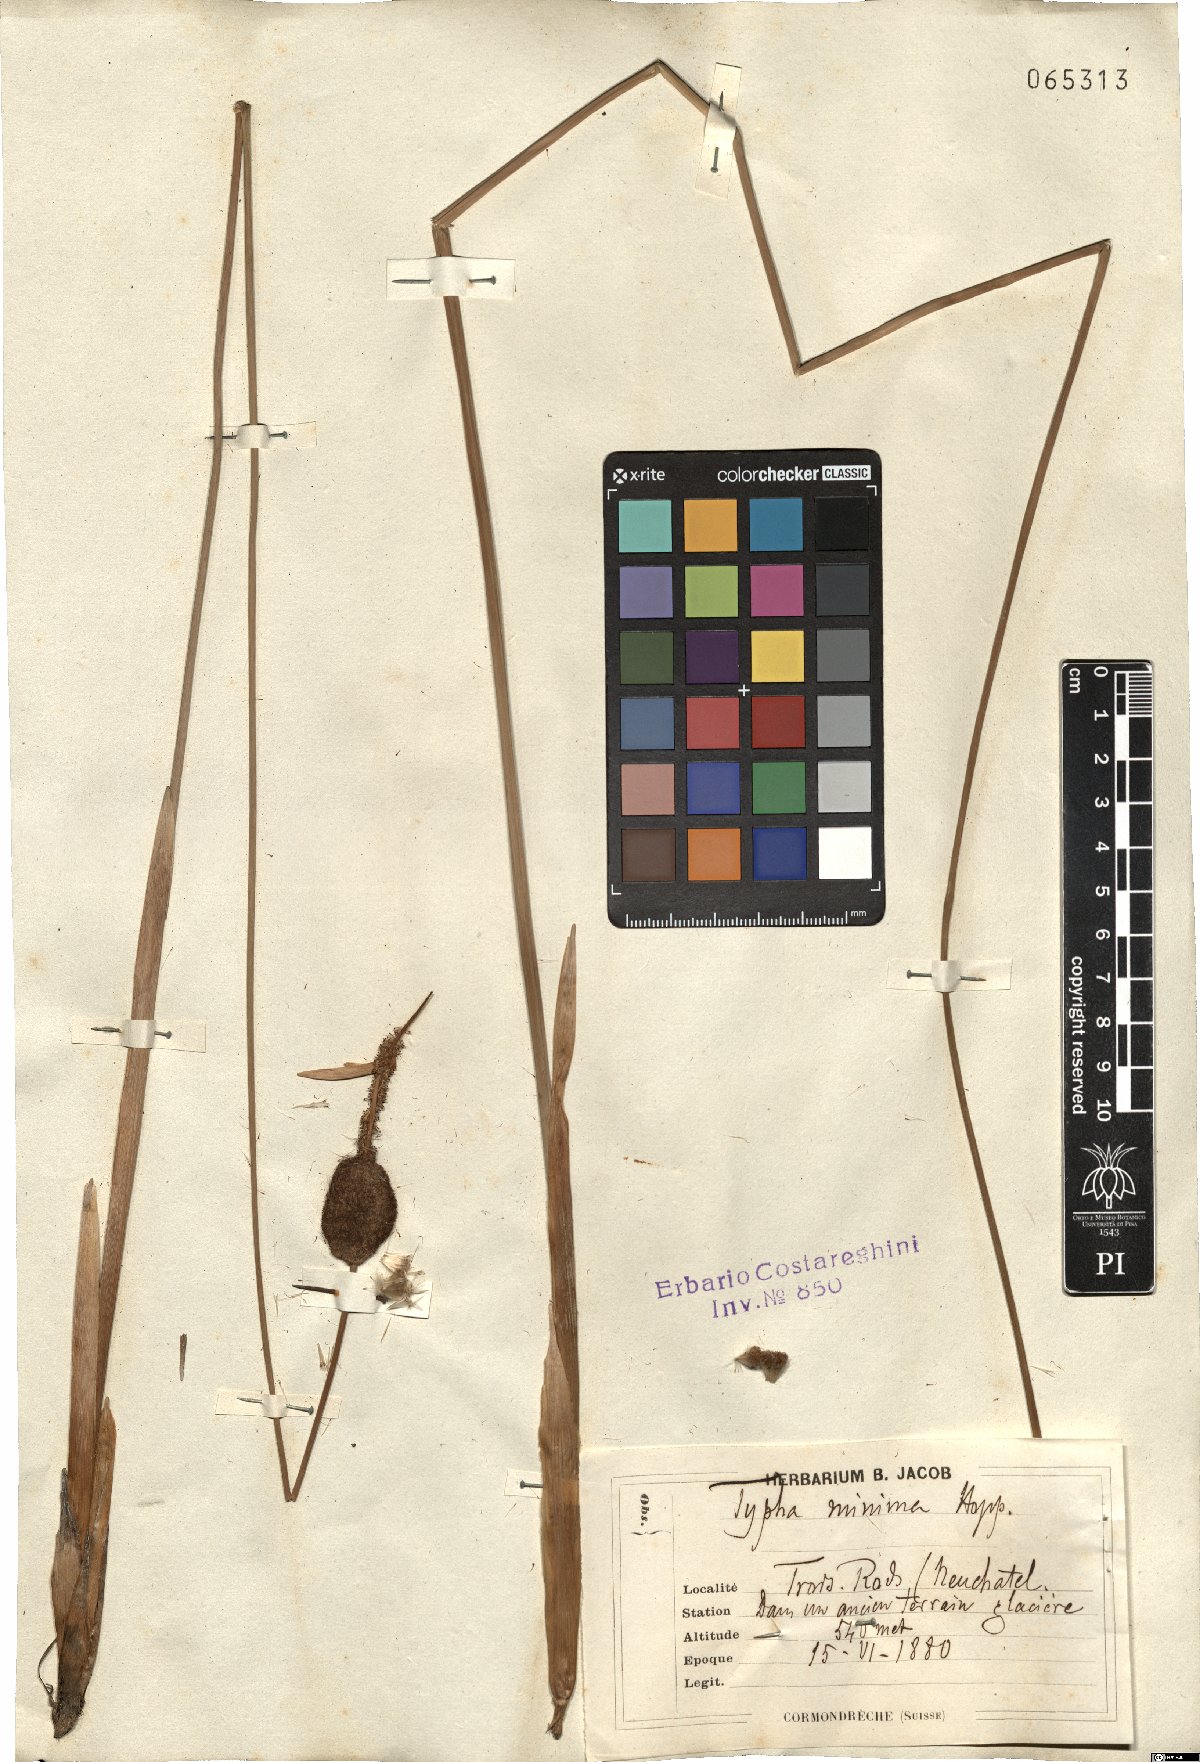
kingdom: Plantae
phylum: Tracheophyta
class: Liliopsida
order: Poales
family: Typhaceae
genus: Typha
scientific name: Typha minima
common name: Dwarf bulrush
